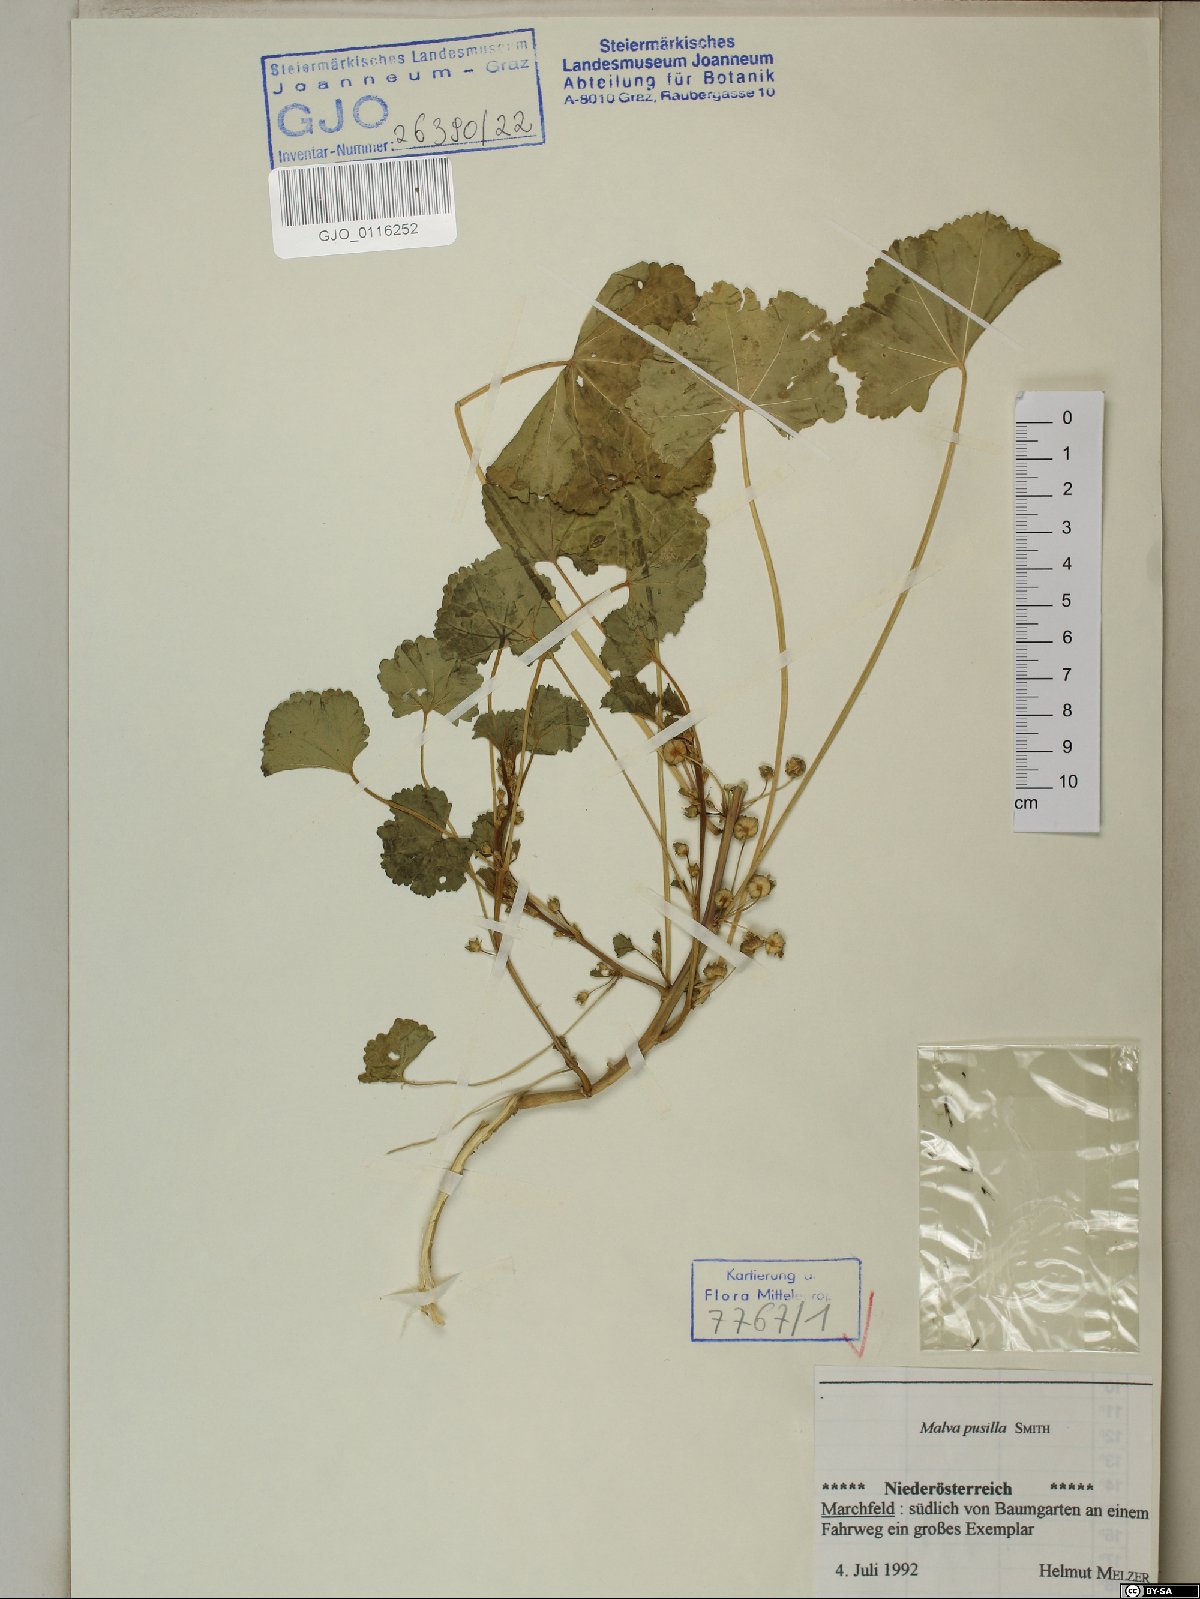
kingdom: Plantae
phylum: Tracheophyta
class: Magnoliopsida
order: Malvales
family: Malvaceae
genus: Malva
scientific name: Malva pusilla
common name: Small mallow
